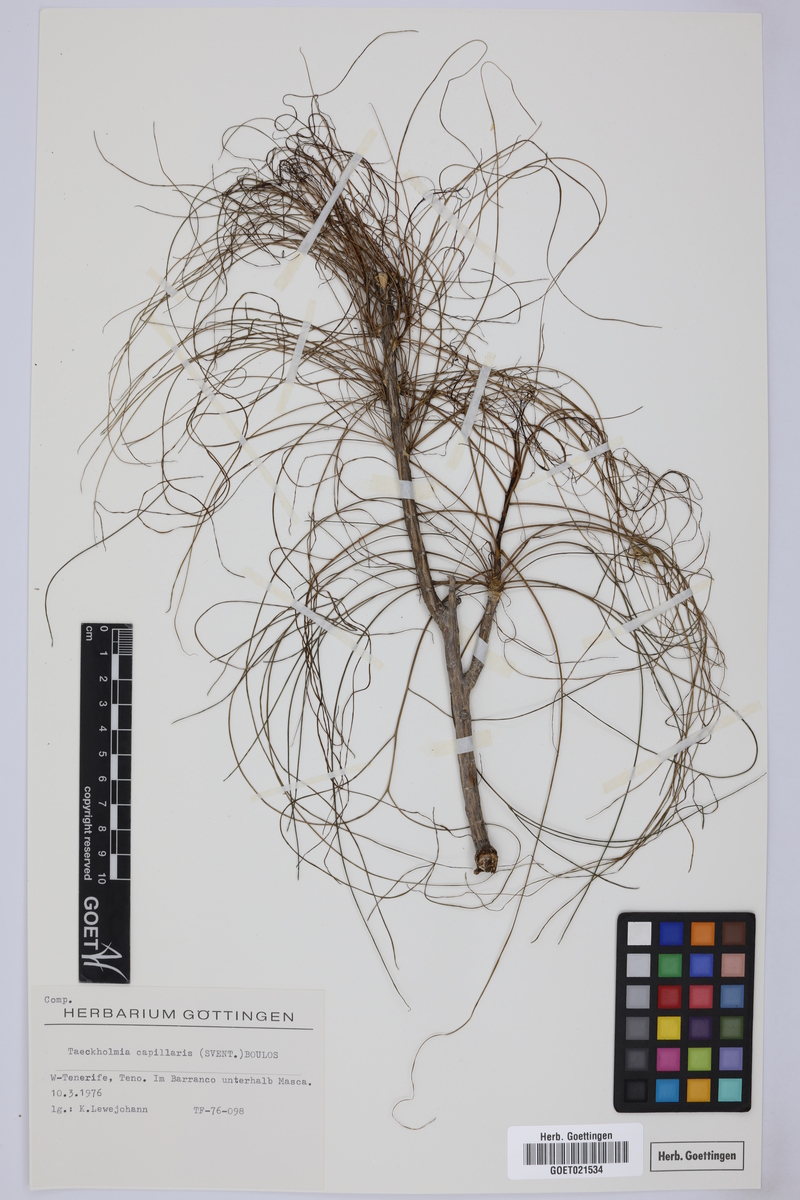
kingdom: Plantae
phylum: Tracheophyta
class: Magnoliopsida
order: Asterales
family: Asteraceae
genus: Sonchus
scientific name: Sonchus capillaris
